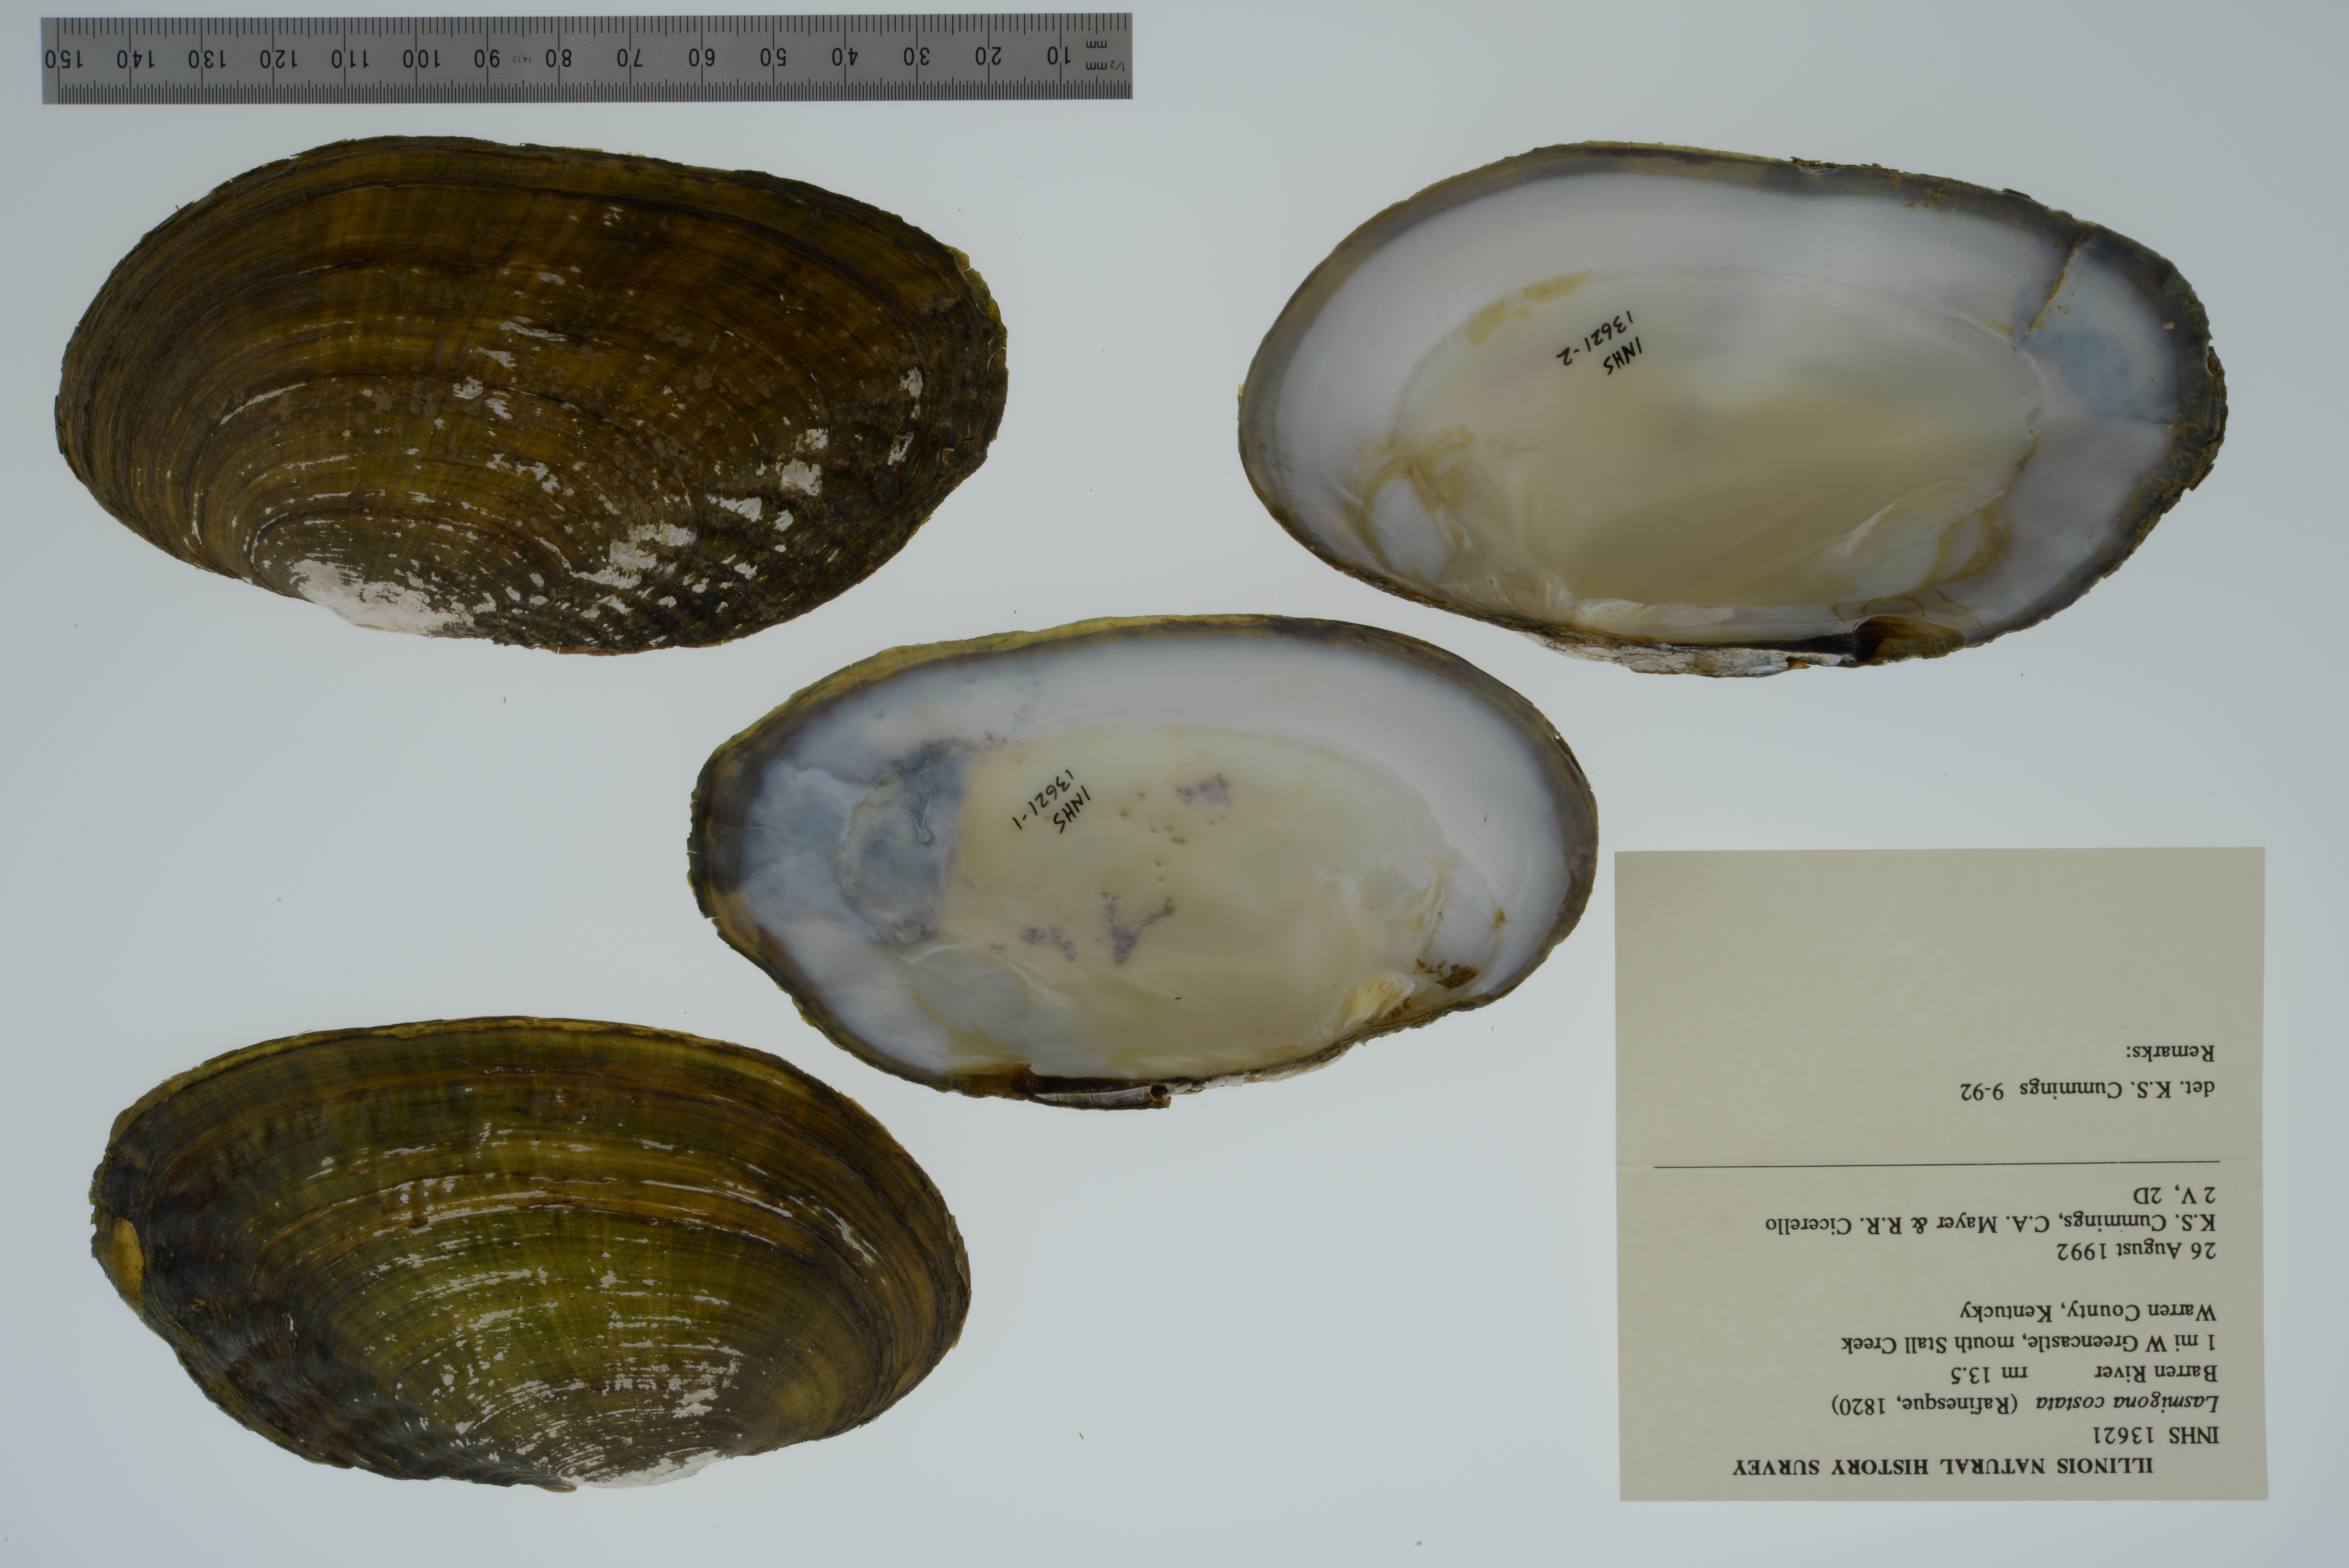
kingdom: Animalia
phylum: Mollusca
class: Bivalvia
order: Unionida
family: Unionidae
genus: Lasmigona
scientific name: Lasmigona costata
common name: Flutedshell
